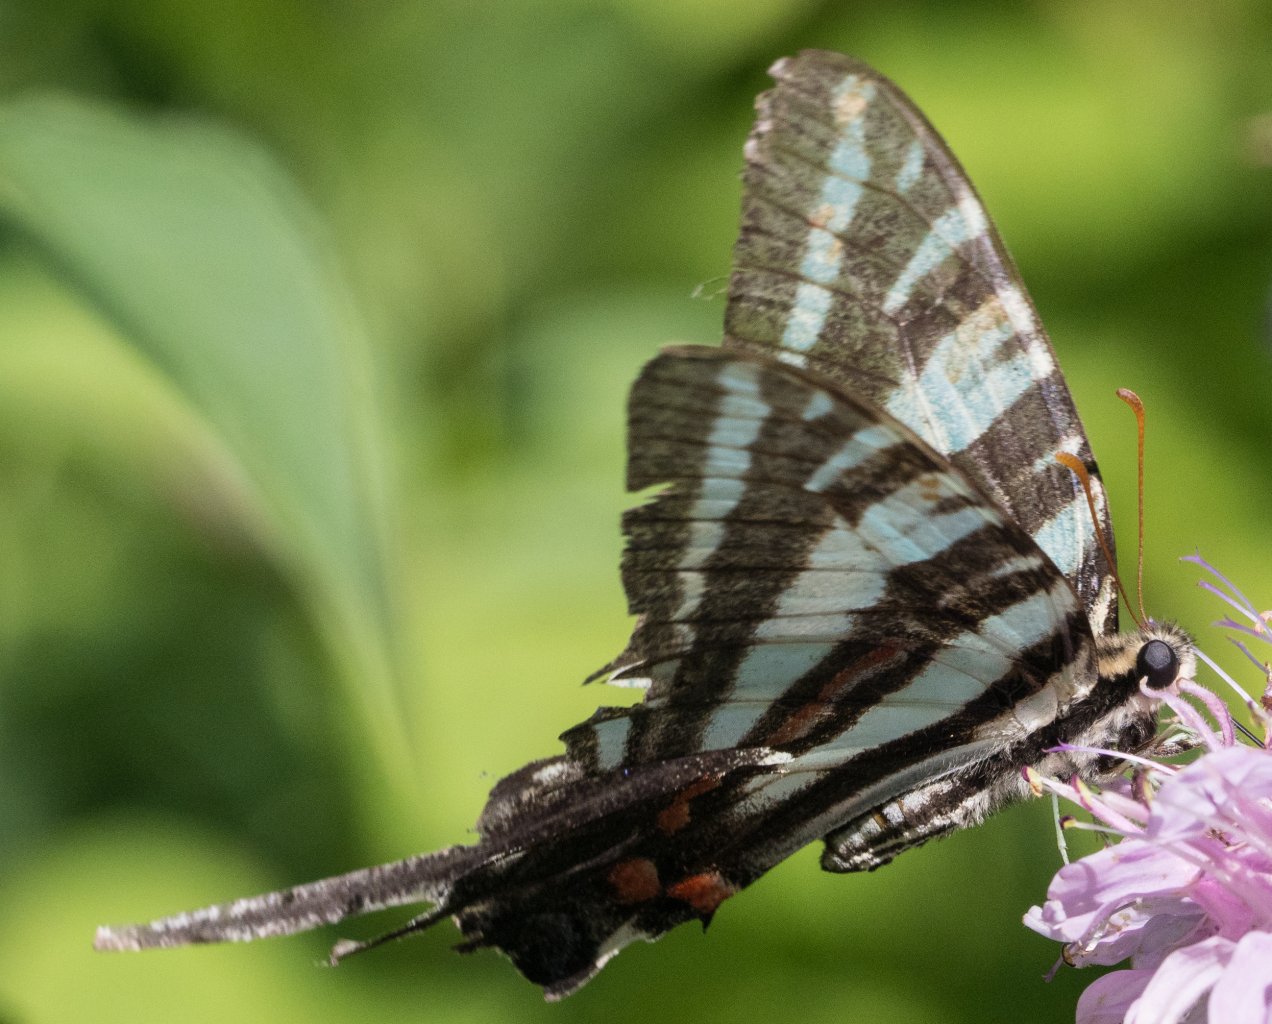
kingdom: Animalia
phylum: Arthropoda
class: Insecta
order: Lepidoptera
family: Papilionidae
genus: Protographium
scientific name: Protographium marcellus
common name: Zebra Swallowtail
